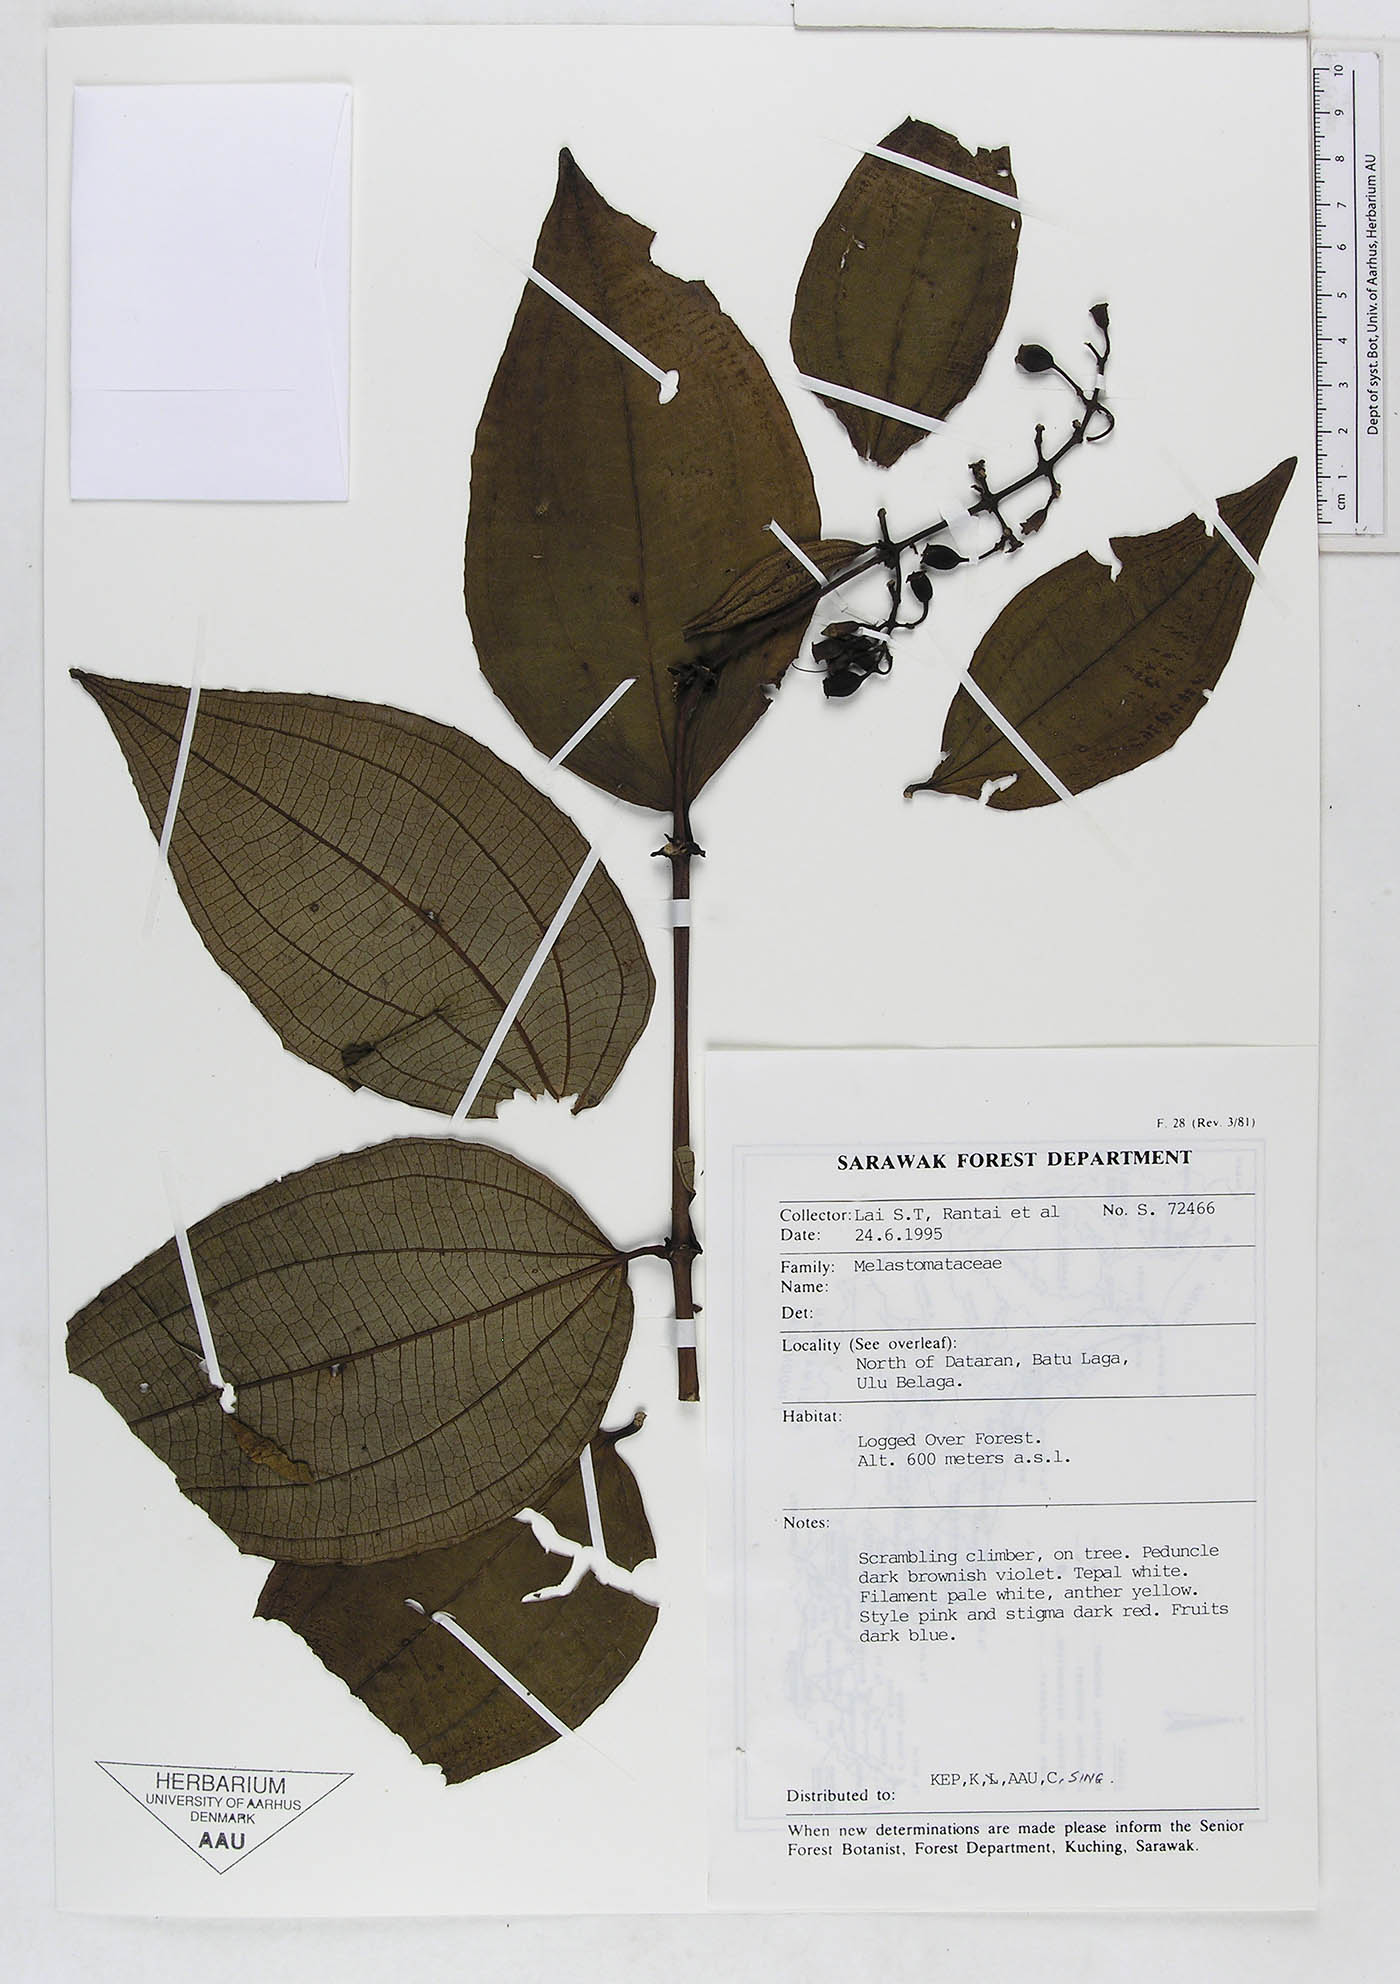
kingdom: Plantae
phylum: Tracheophyta
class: Magnoliopsida
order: Myrtales
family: Melastomataceae
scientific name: Melastomataceae
